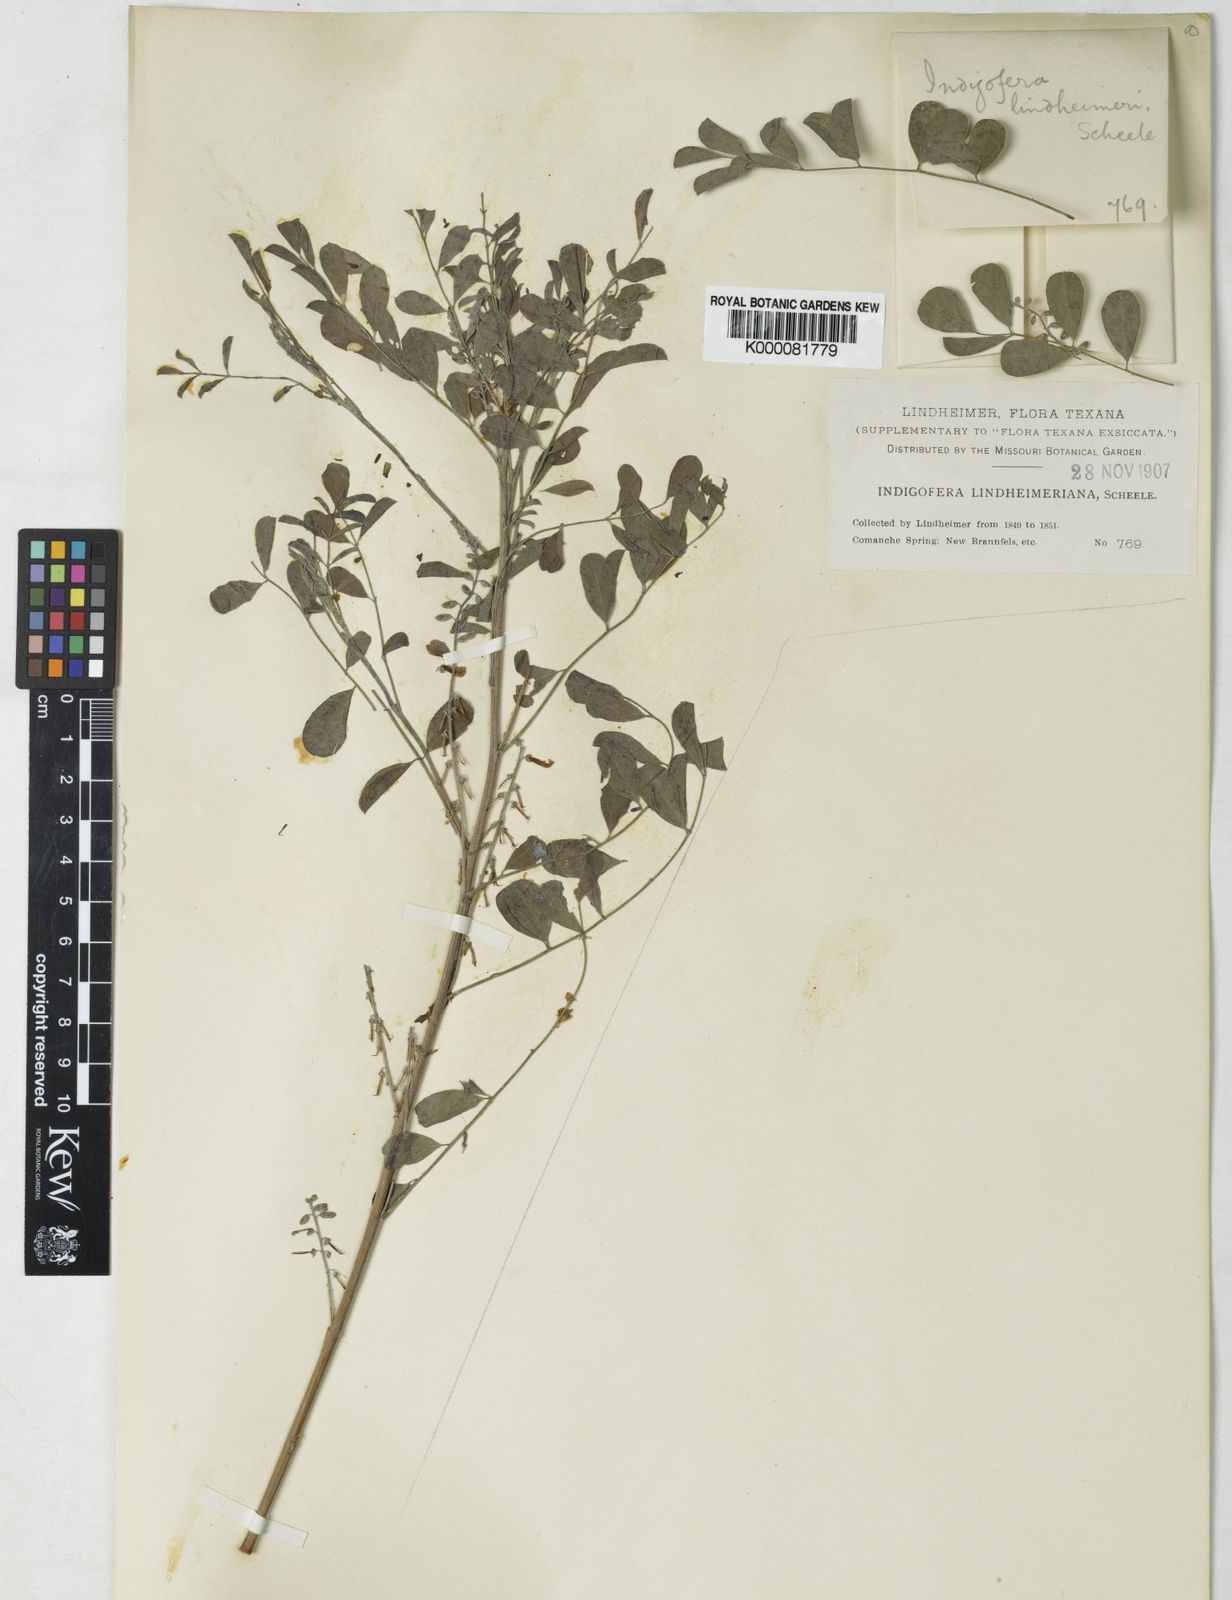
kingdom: Plantae
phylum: Tracheophyta
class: Magnoliopsida
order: Fabales
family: Fabaceae
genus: Indigofera
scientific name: Indigofera lindheimeriana
